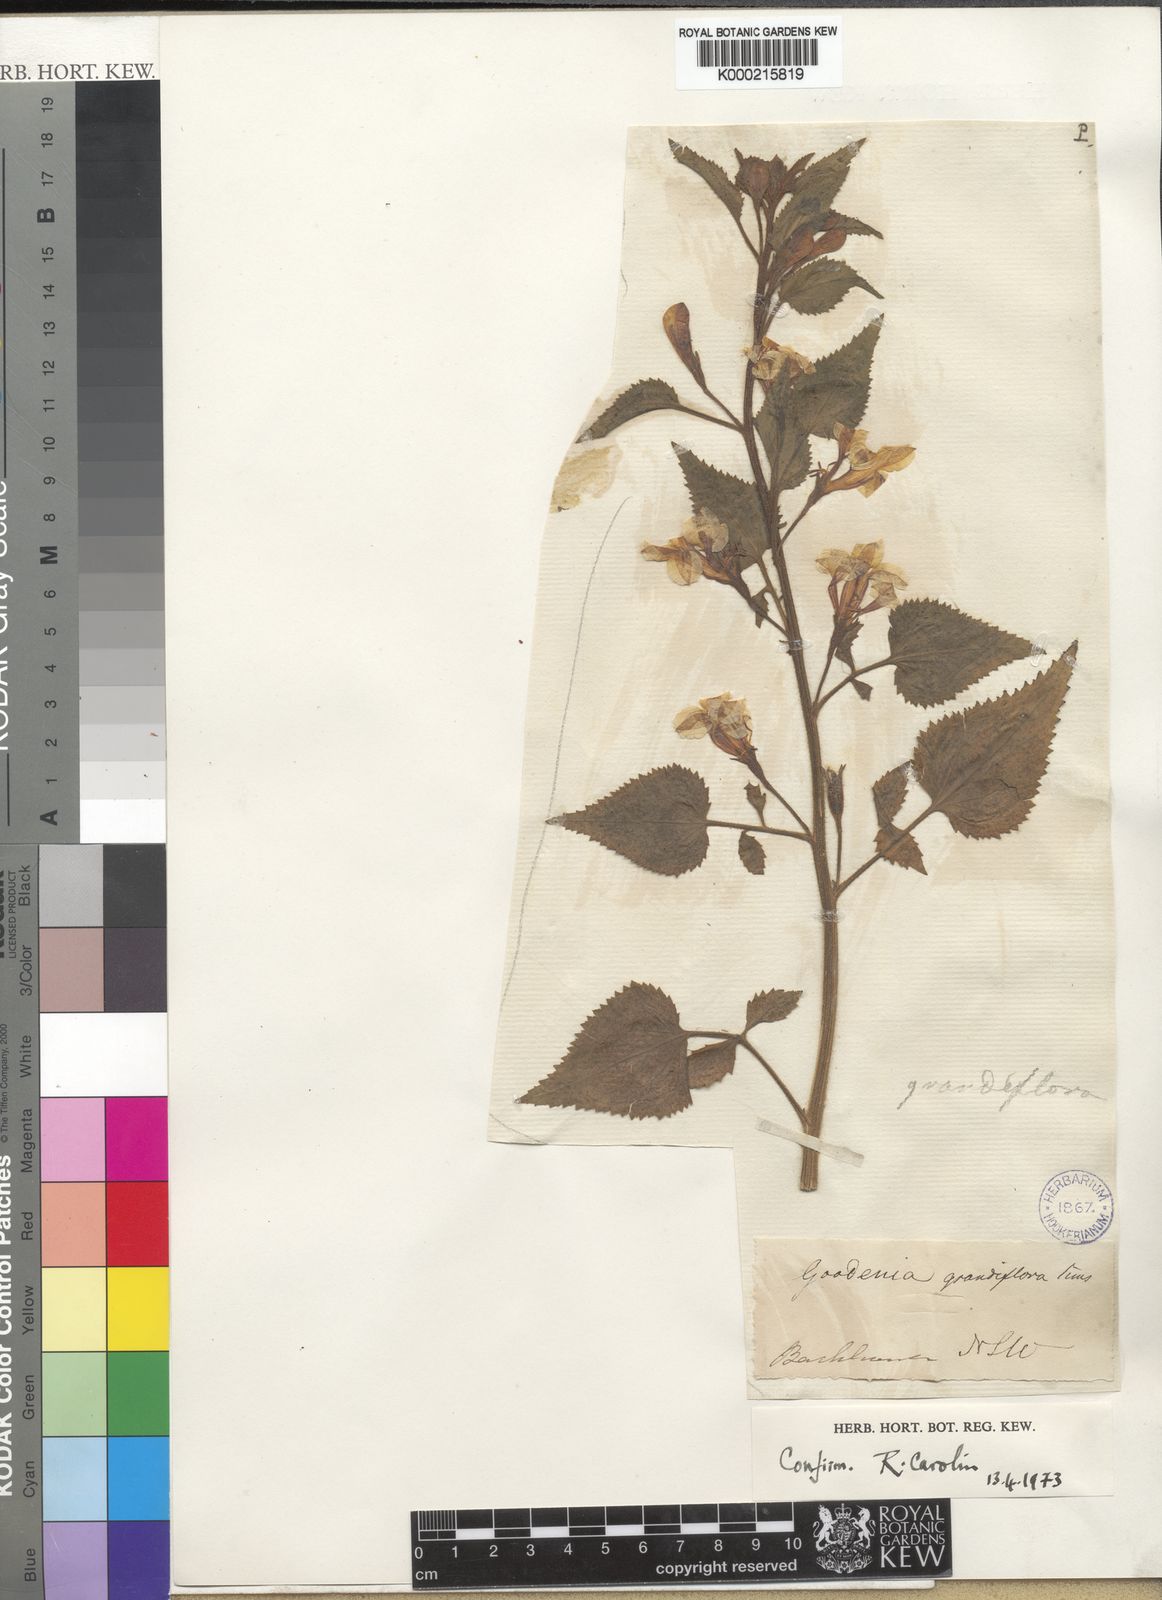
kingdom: Plantae
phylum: Tracheophyta
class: Magnoliopsida
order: Asterales
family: Goodeniaceae
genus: Goodenia
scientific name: Goodenia grandiflora
